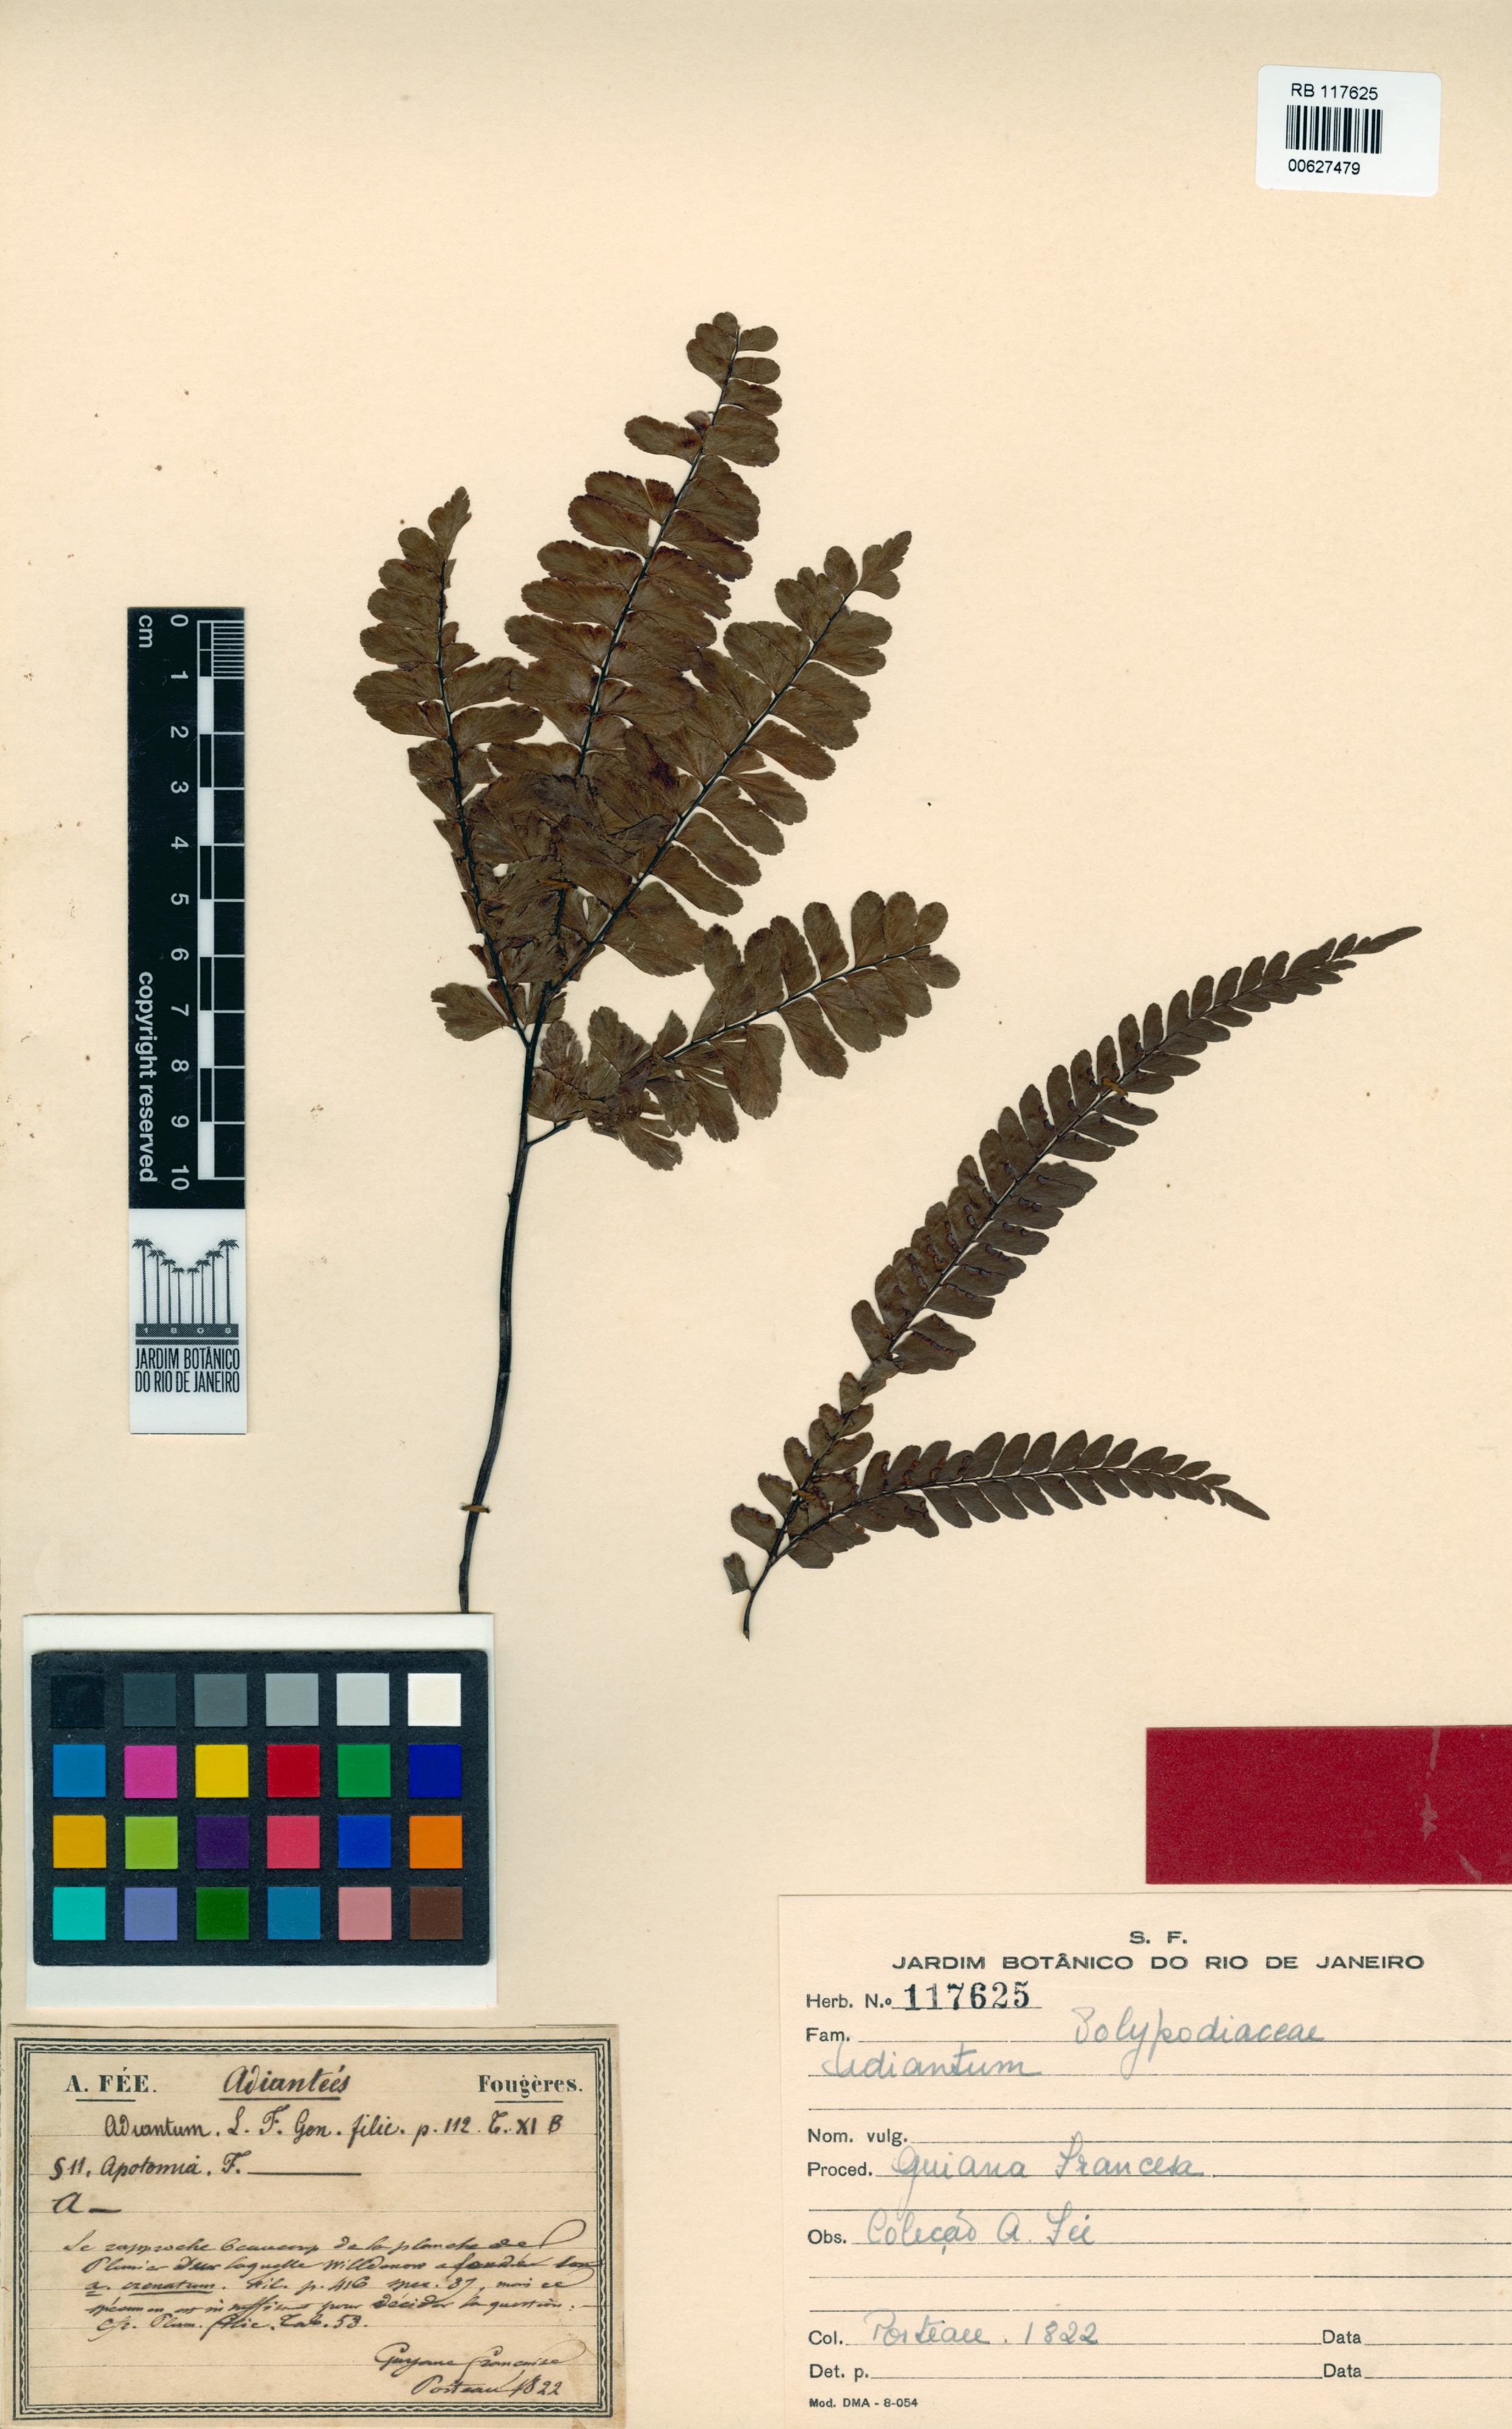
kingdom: Plantae
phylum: Tracheophyta
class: Polypodiopsida
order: Polypodiales
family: Pteridaceae
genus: Adiantum
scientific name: Adiantum
